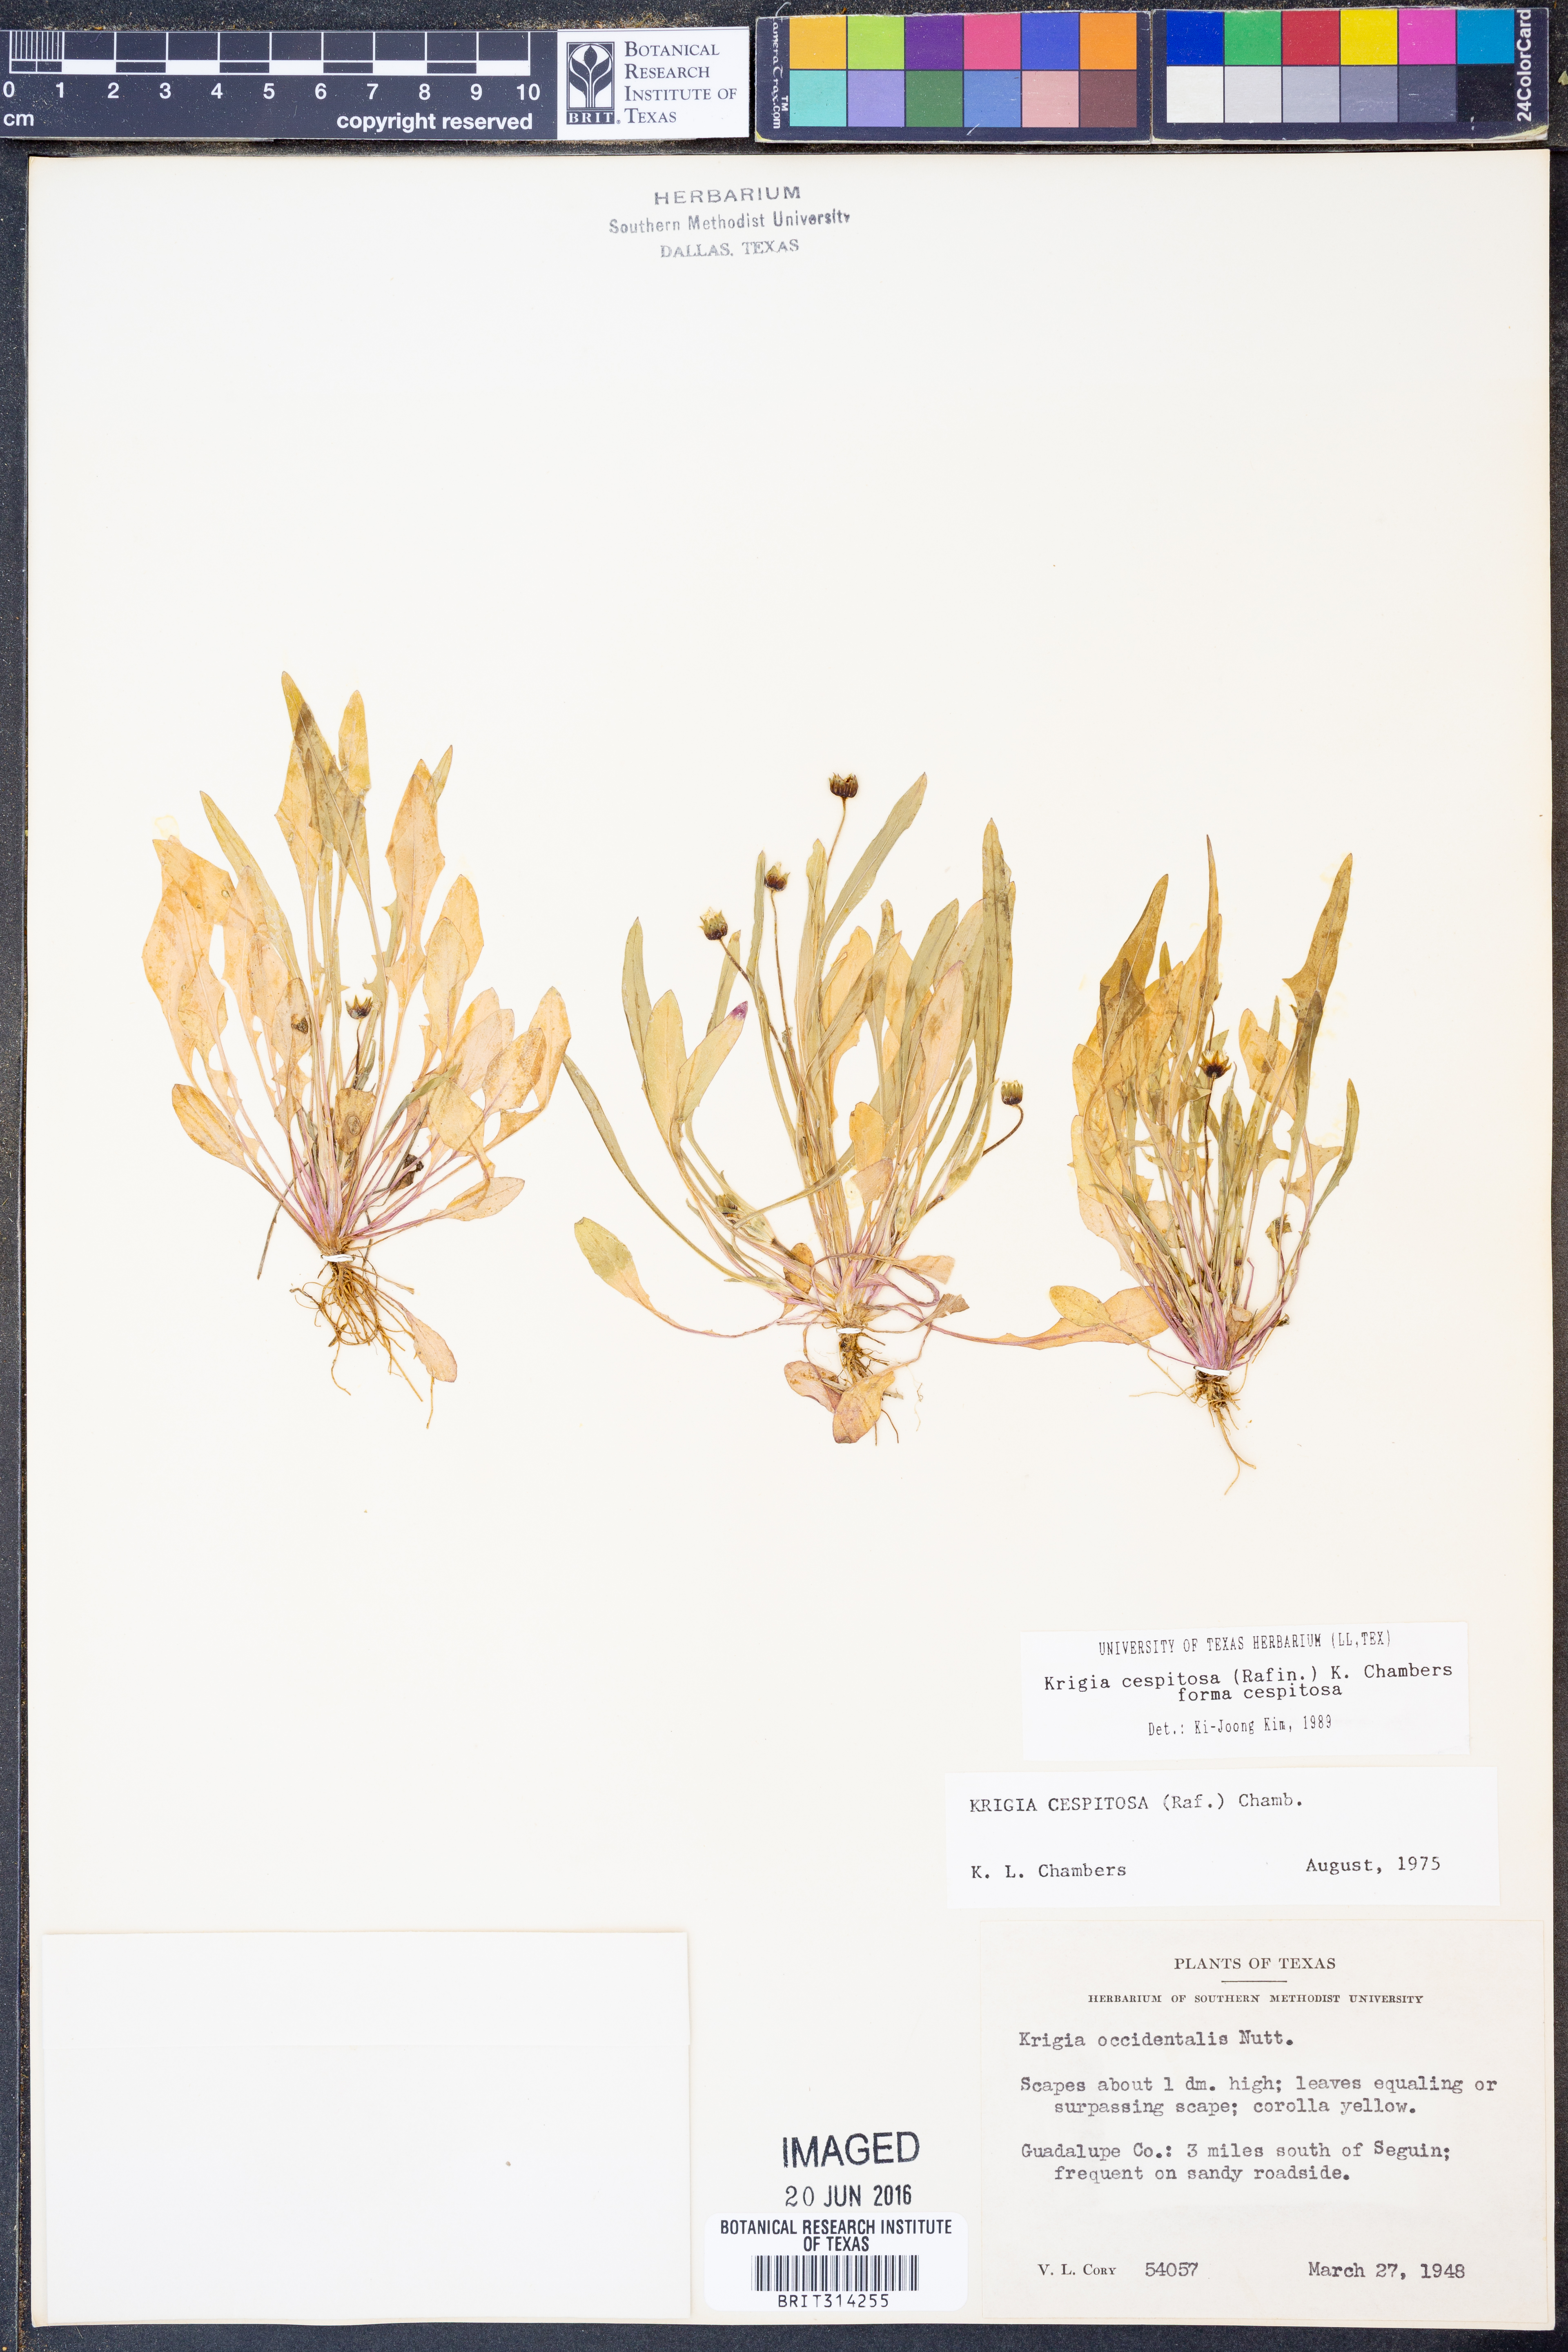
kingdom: Plantae
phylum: Tracheophyta
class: Magnoliopsida
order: Asterales
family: Asteraceae
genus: Krigia
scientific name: Krigia cespitosa
